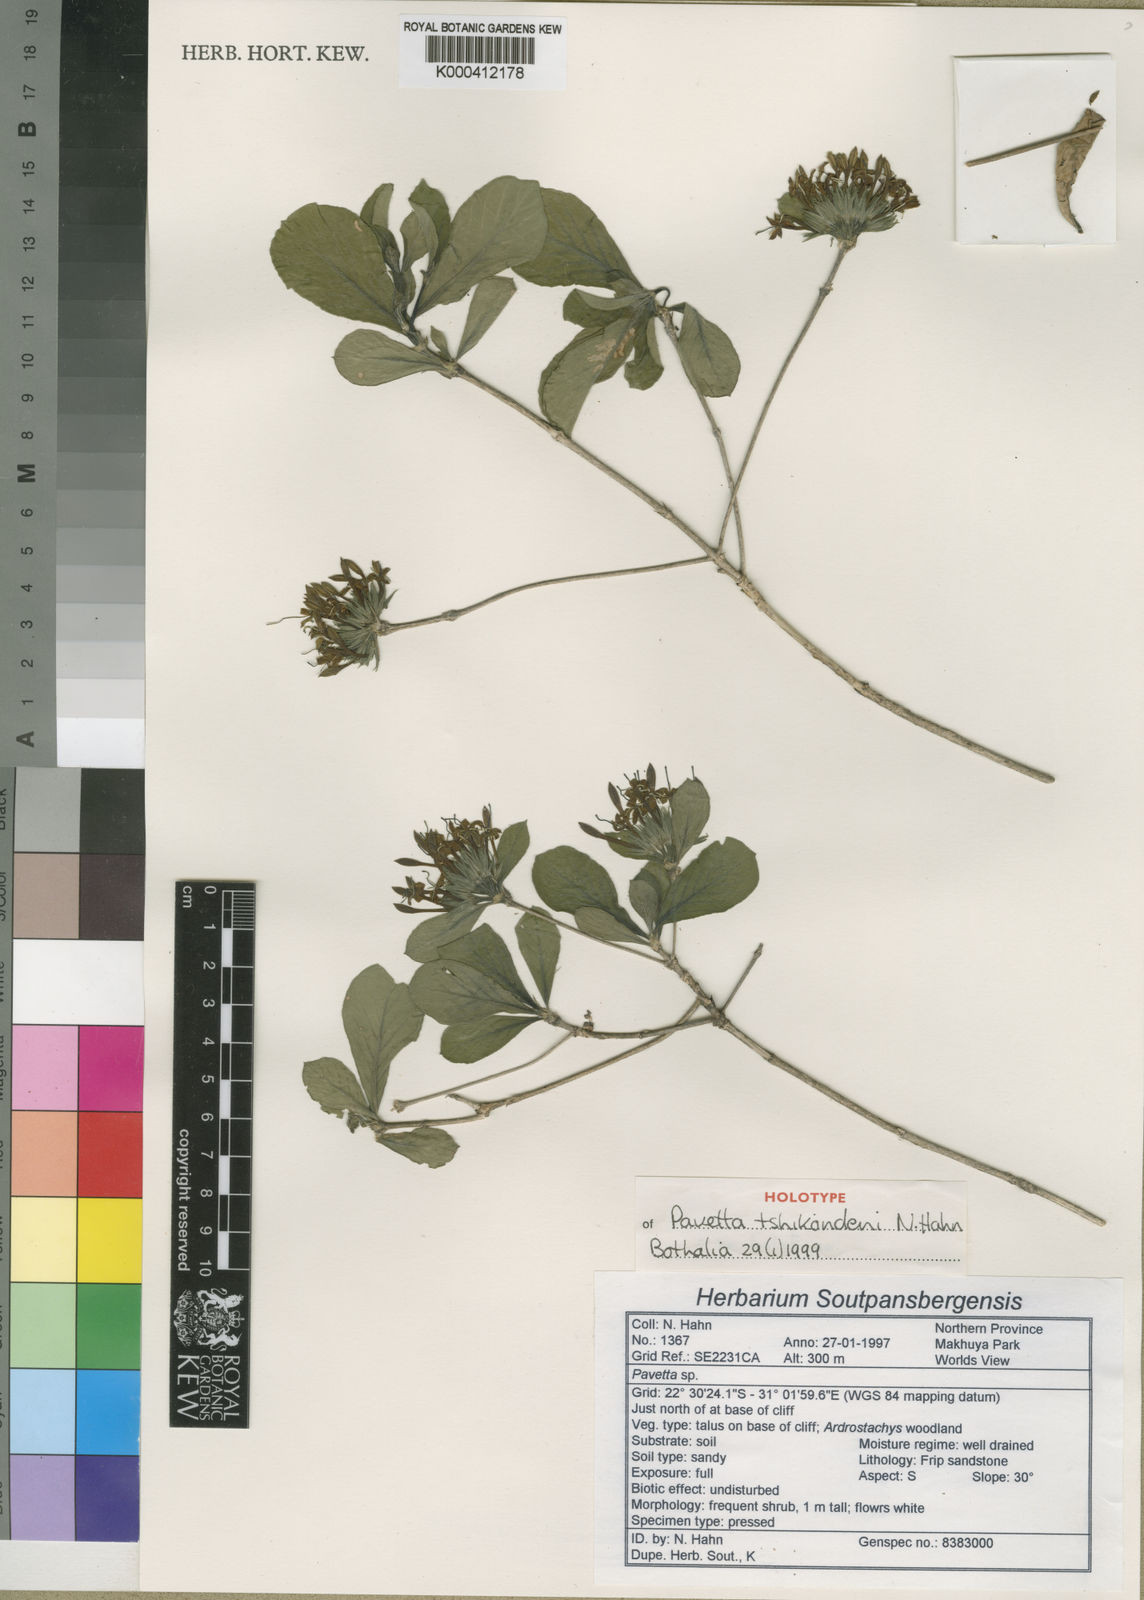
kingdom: Plantae
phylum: Tracheophyta
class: Magnoliopsida
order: Gentianales
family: Rubiaceae
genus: Pavetta
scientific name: Pavetta tschikonderi
